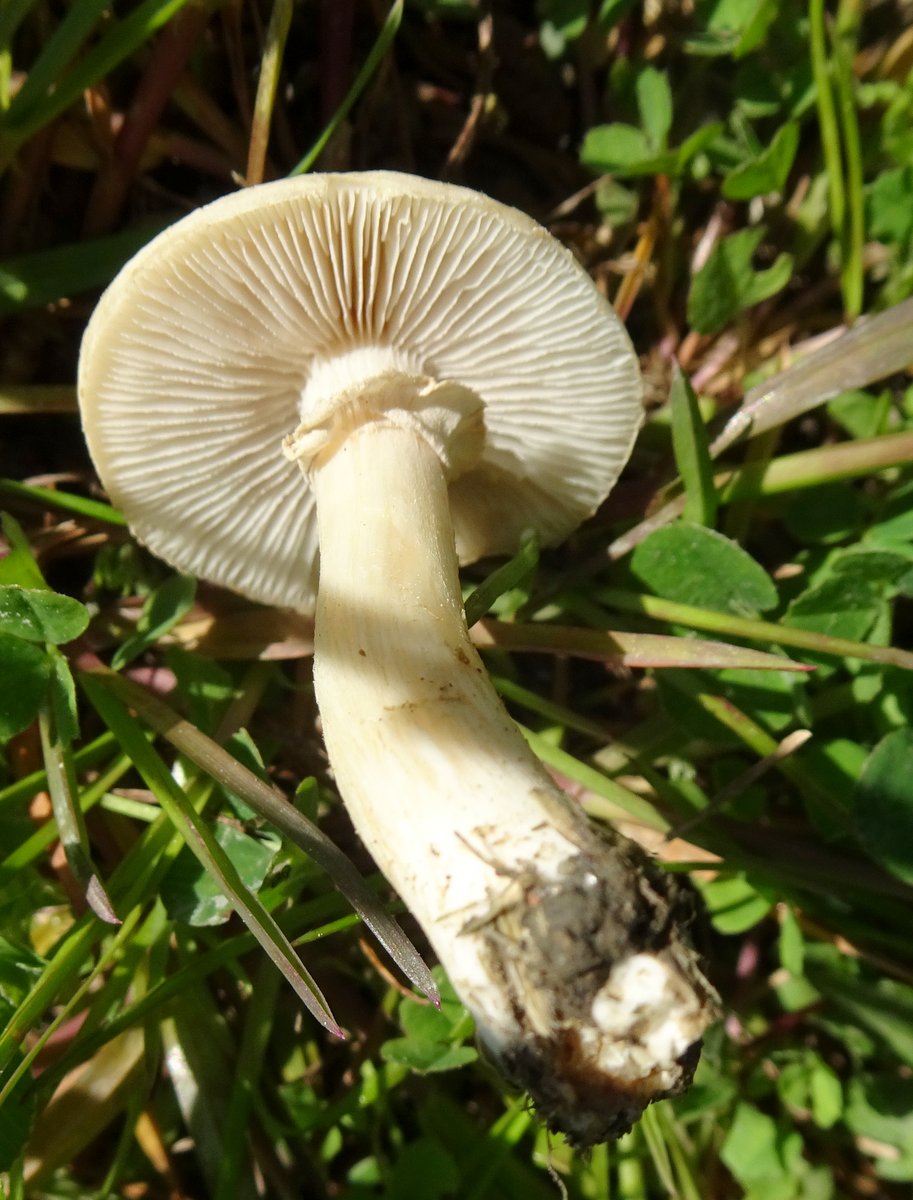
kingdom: Fungi
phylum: Basidiomycota
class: Agaricomycetes
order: Agaricales
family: Strophariaceae
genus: Agrocybe
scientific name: Agrocybe
